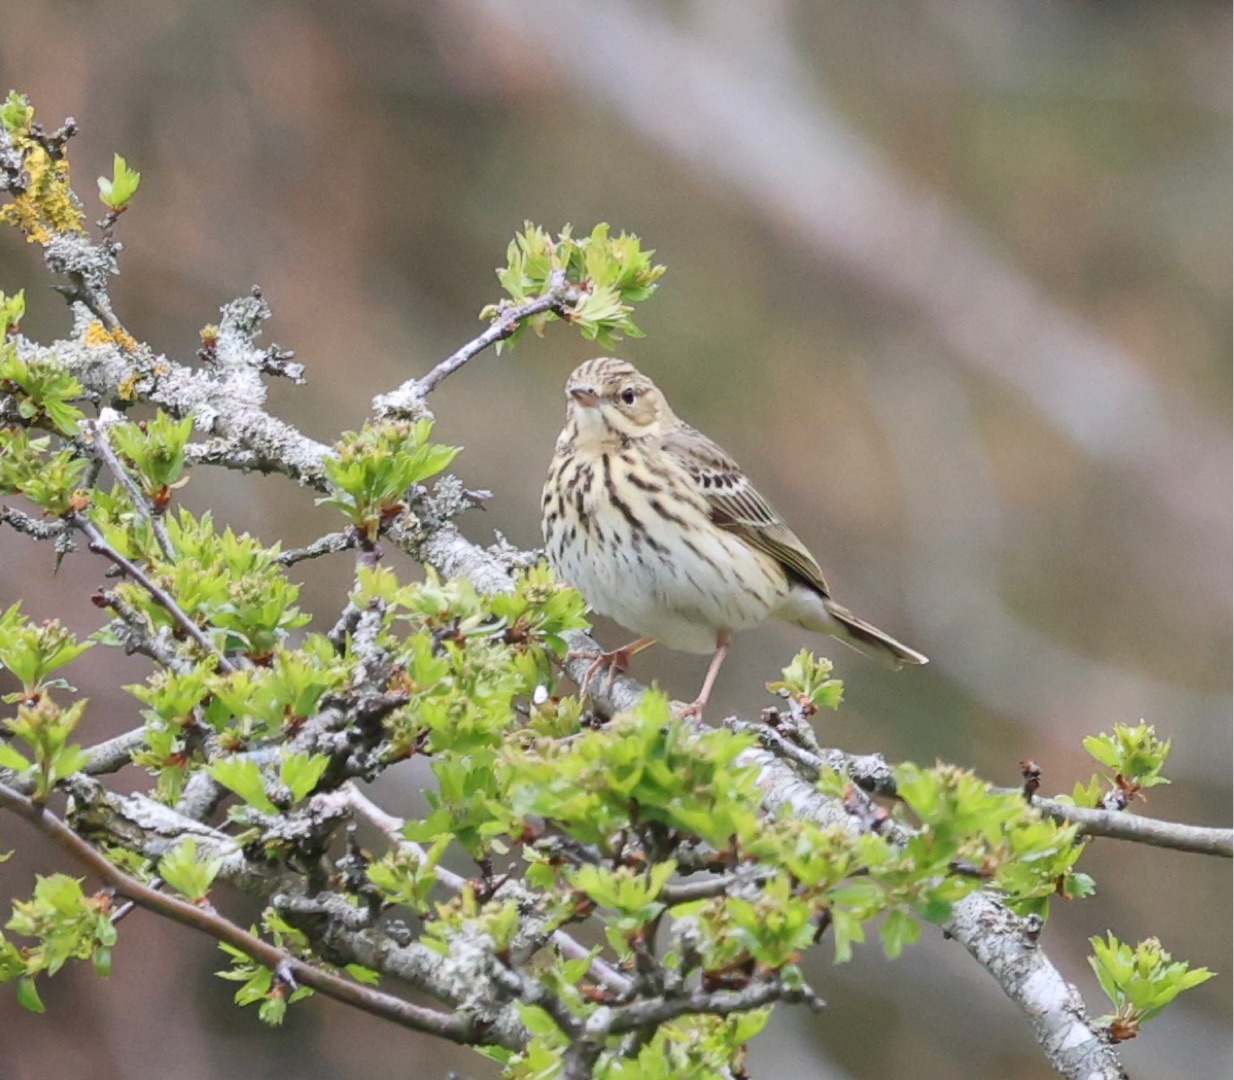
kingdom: Animalia
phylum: Chordata
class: Aves
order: Passeriformes
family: Motacillidae
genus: Anthus
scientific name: Anthus trivialis
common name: Skovpiber
